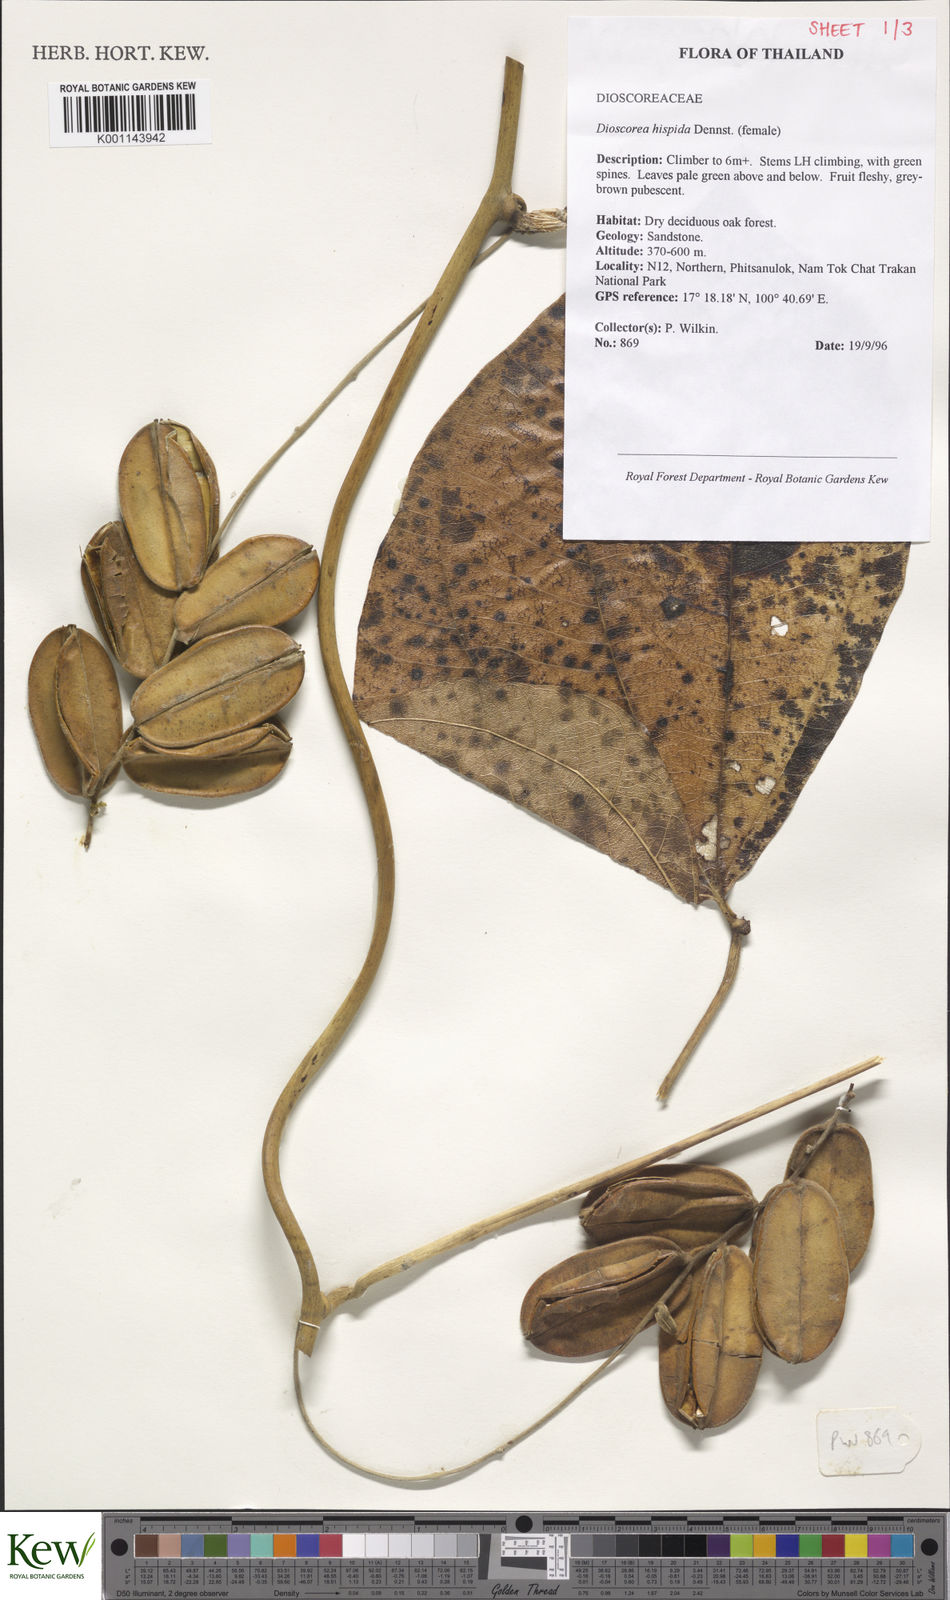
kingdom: Plantae
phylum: Tracheophyta
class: Liliopsida
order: Dioscoreales
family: Dioscoreaceae
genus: Dioscorea
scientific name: Dioscorea hispida
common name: Asiatic bitter yam
